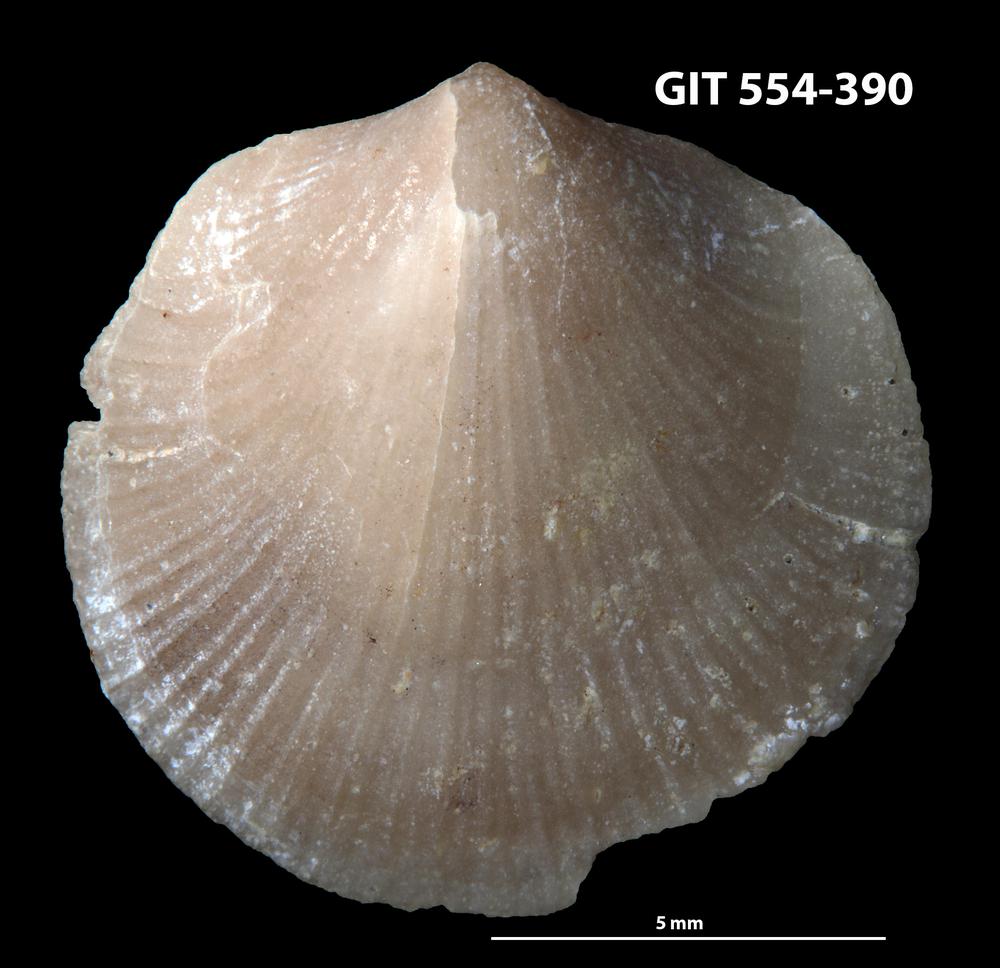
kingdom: Animalia
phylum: Brachiopoda
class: Rhynchonellata
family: Dalmanellidae
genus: Isorthis
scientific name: Isorthis Onniella mediocra
